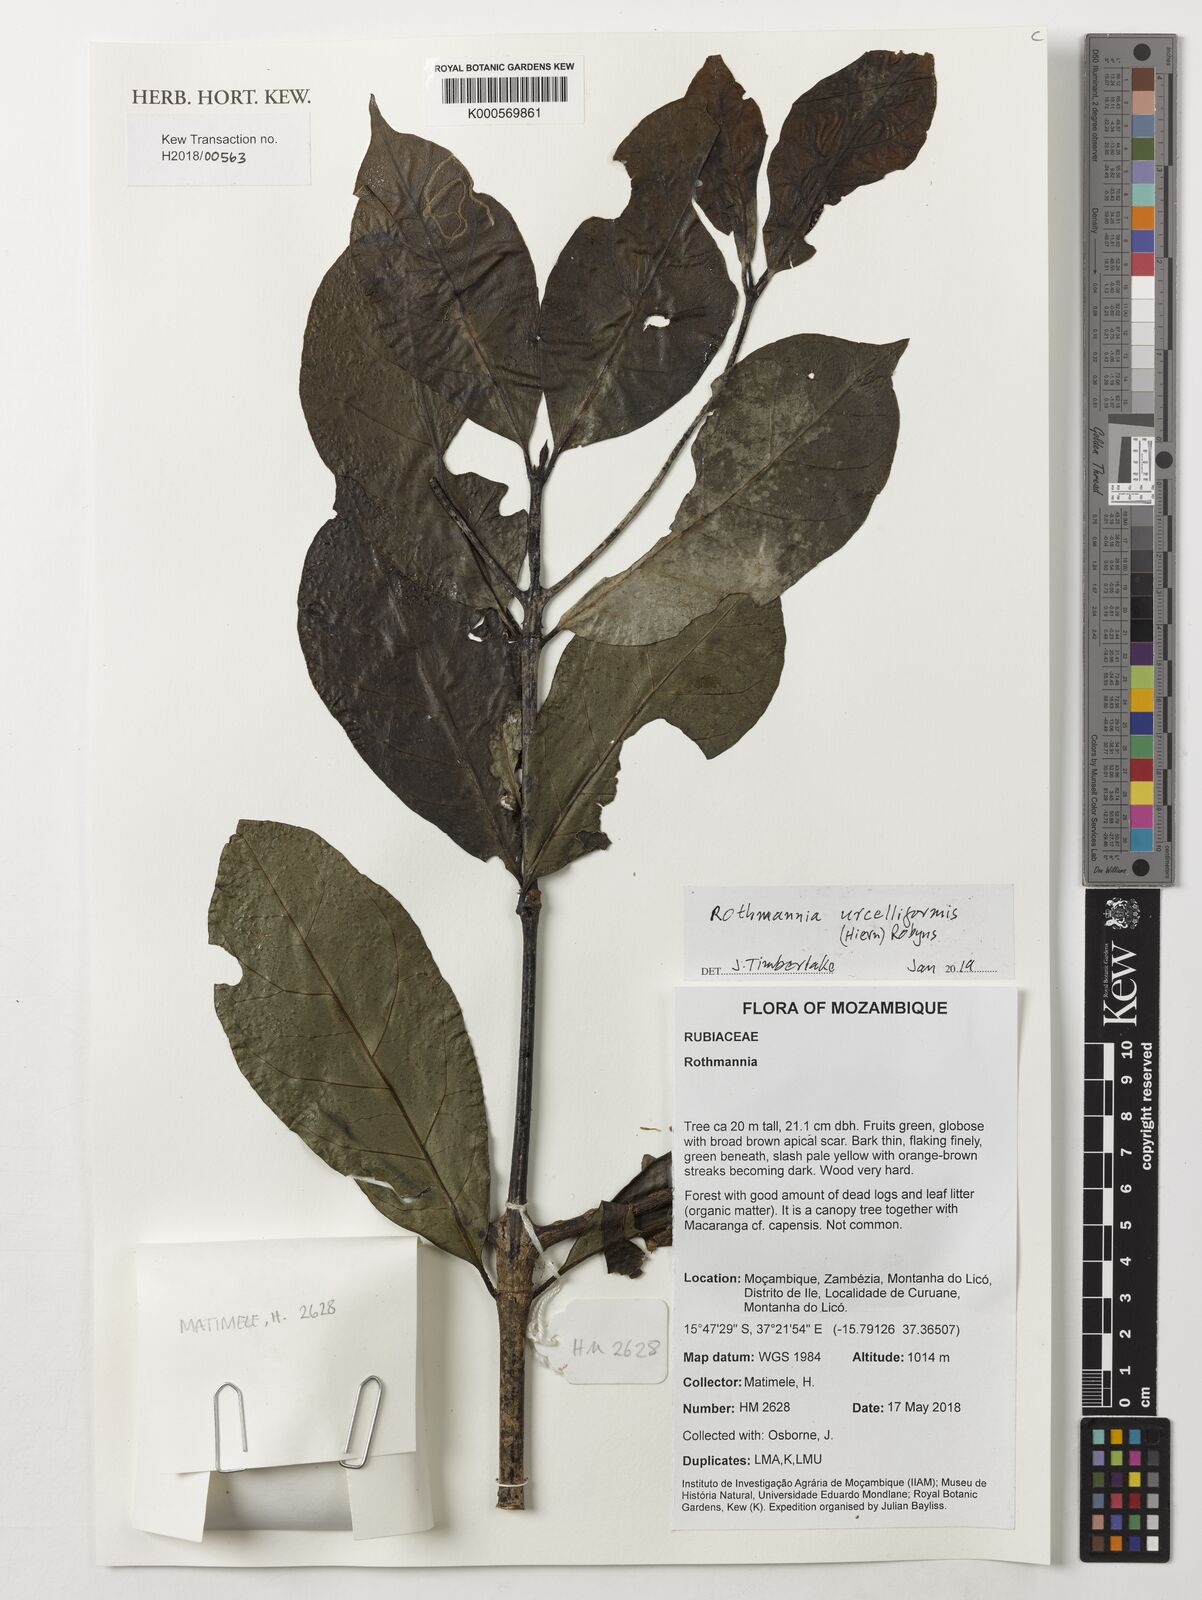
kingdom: Plantae
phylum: Tracheophyta
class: Magnoliopsida
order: Gentianales
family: Rubiaceae
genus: Rothmannia
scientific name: Rothmannia urcelliformis
